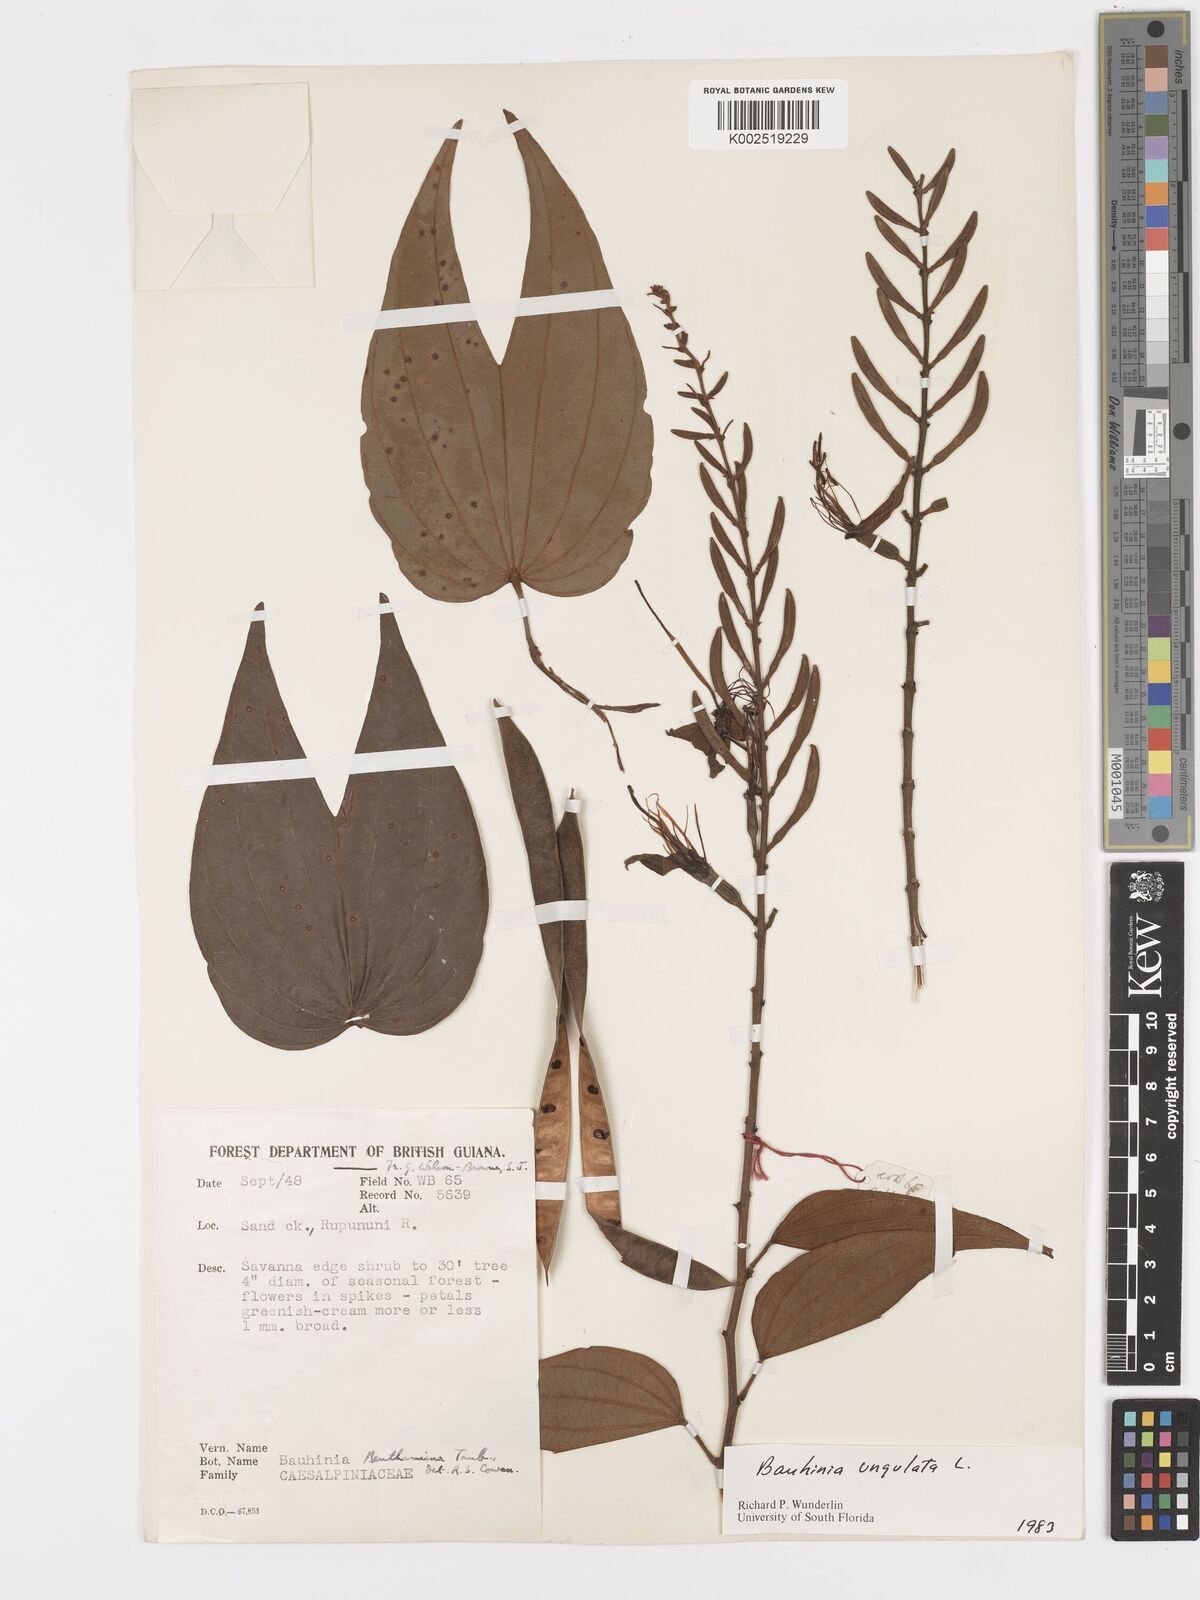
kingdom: Plantae
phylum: Tracheophyta
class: Magnoliopsida
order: Fabales
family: Fabaceae
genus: Bauhinia
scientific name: Bauhinia ungulata
